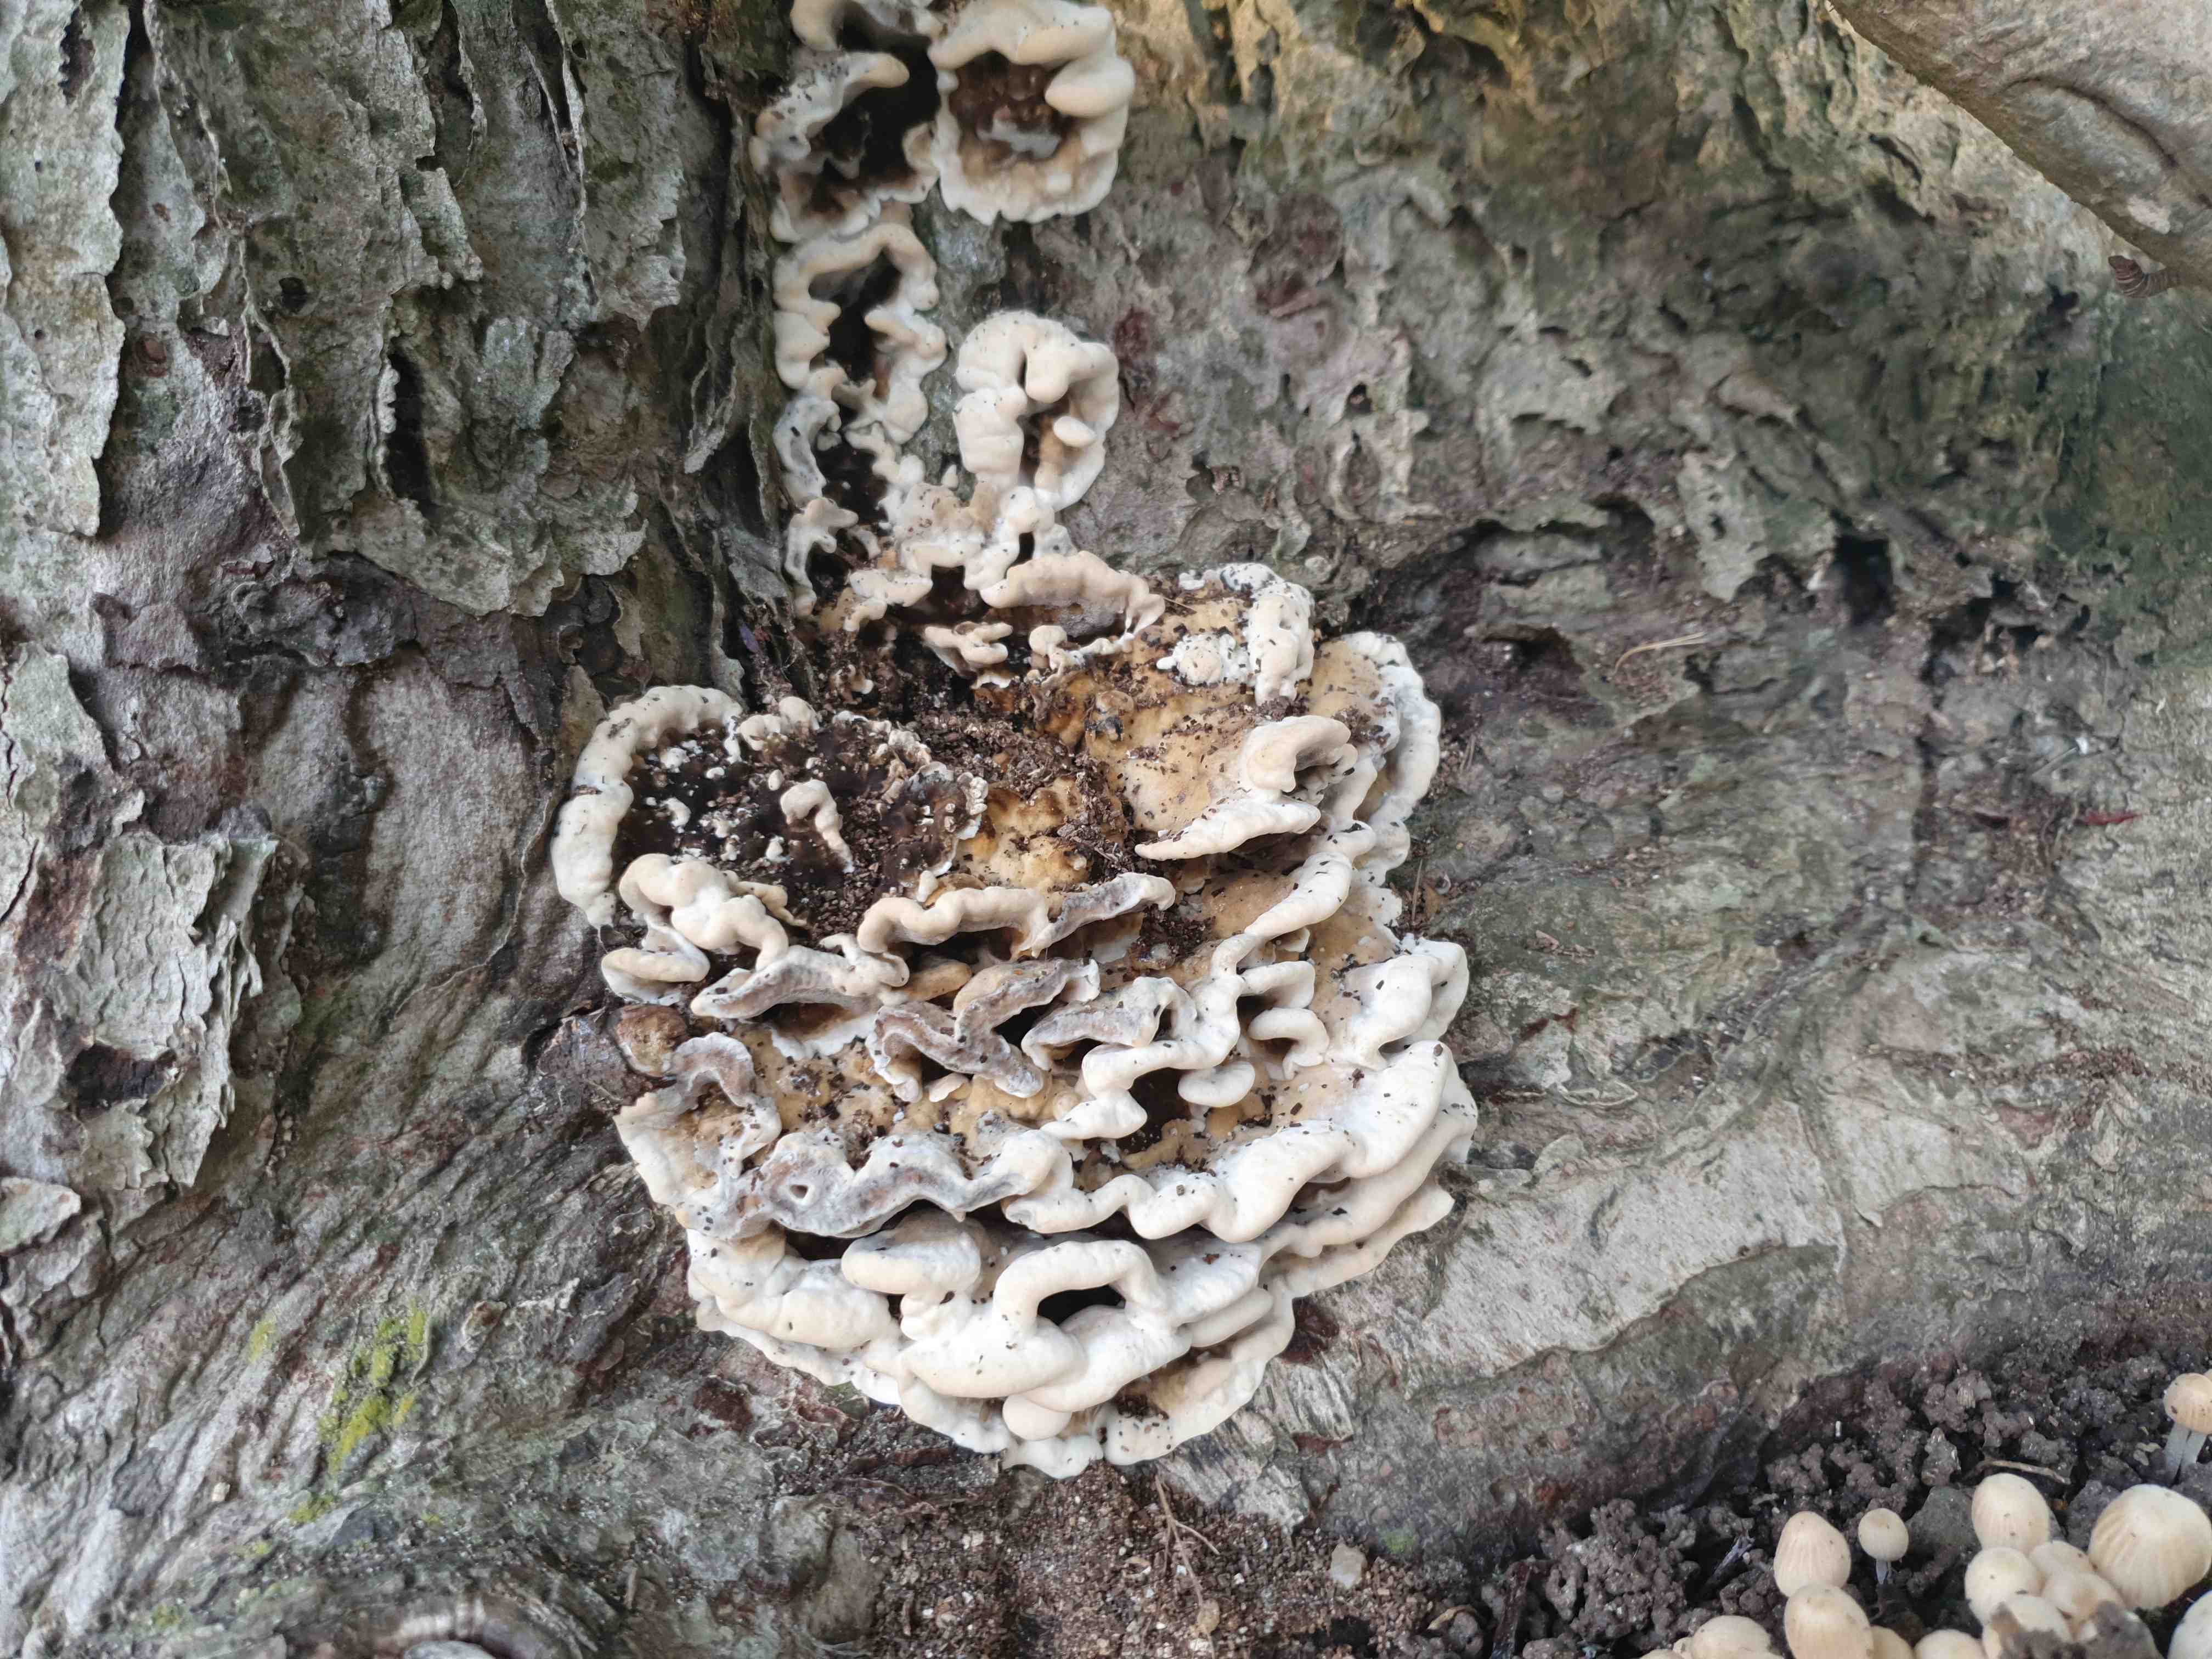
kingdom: Fungi
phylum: Basidiomycota
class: Agaricomycetes
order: Polyporales
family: Phanerochaetaceae
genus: Bjerkandera
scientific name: Bjerkandera adusta
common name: sveden sodporesvamp
